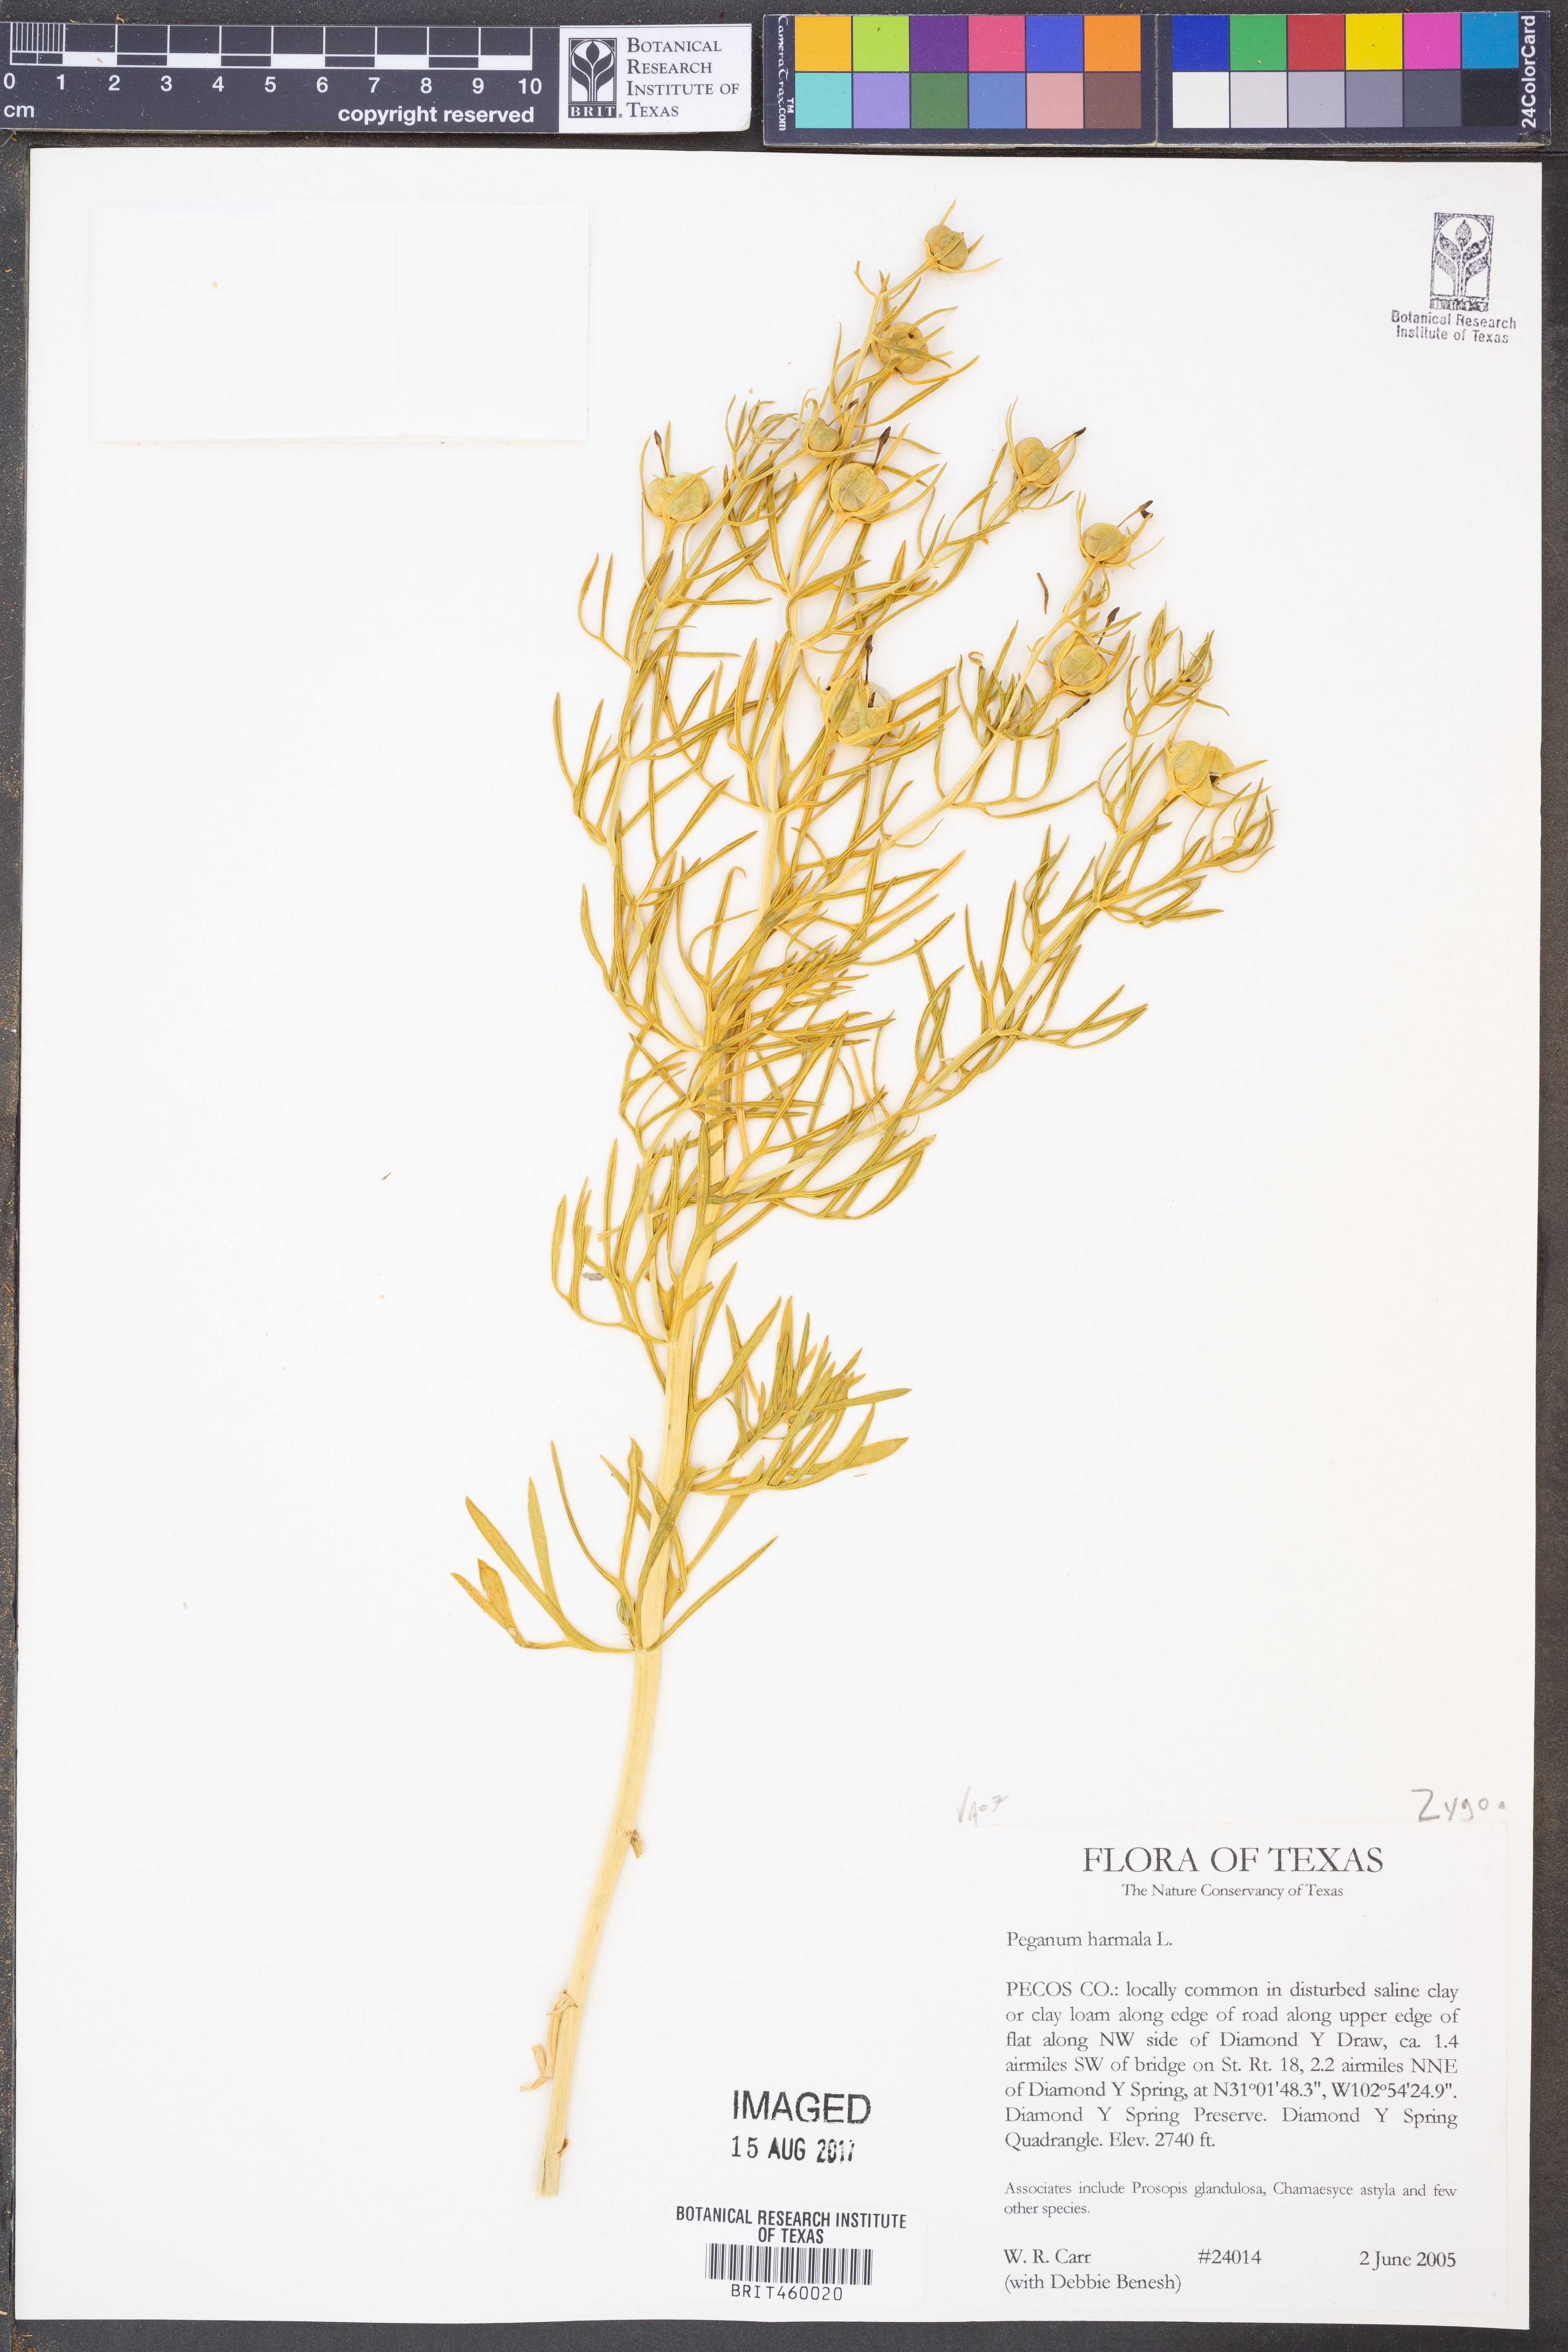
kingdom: Plantae
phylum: Tracheophyta
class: Magnoliopsida
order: Sapindales
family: Tetradiclidaceae
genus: Peganum
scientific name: Peganum harmala
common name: Harmal peganum
